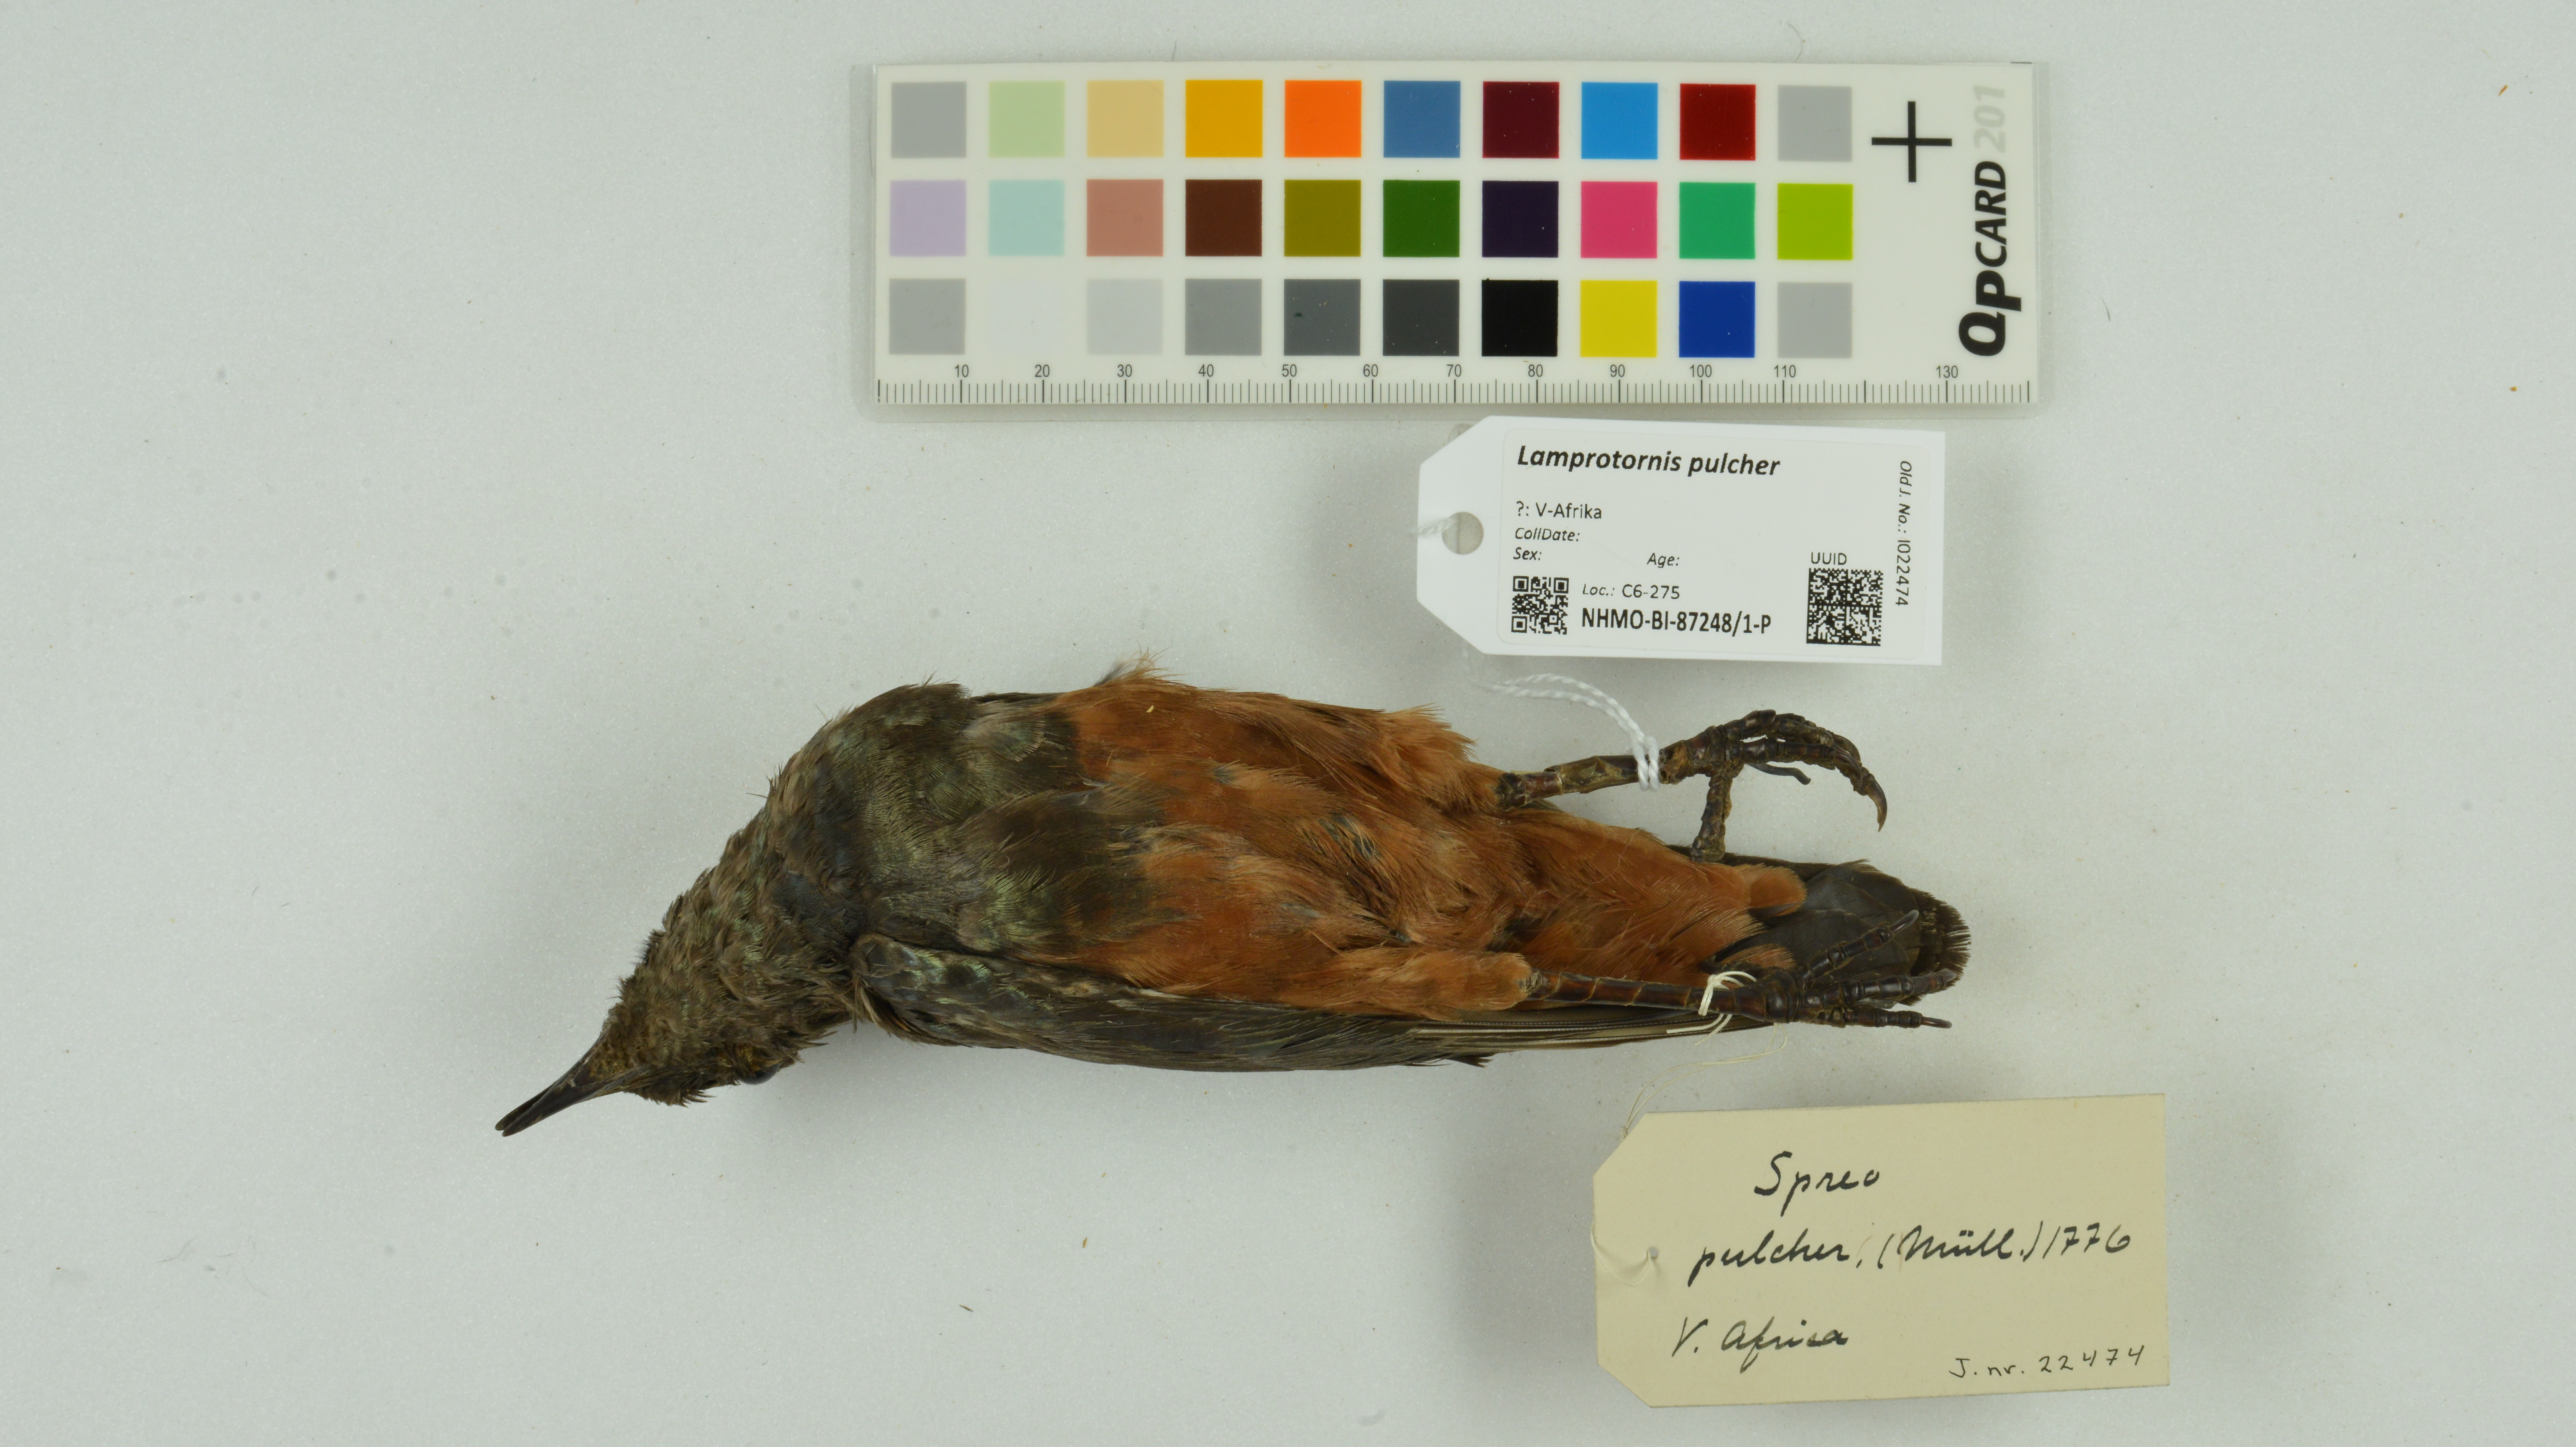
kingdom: Animalia
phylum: Chordata
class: Aves
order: Passeriformes
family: Sturnidae
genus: Lamprotornis
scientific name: Lamprotornis pulcher
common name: Chestnut-bellied starling
